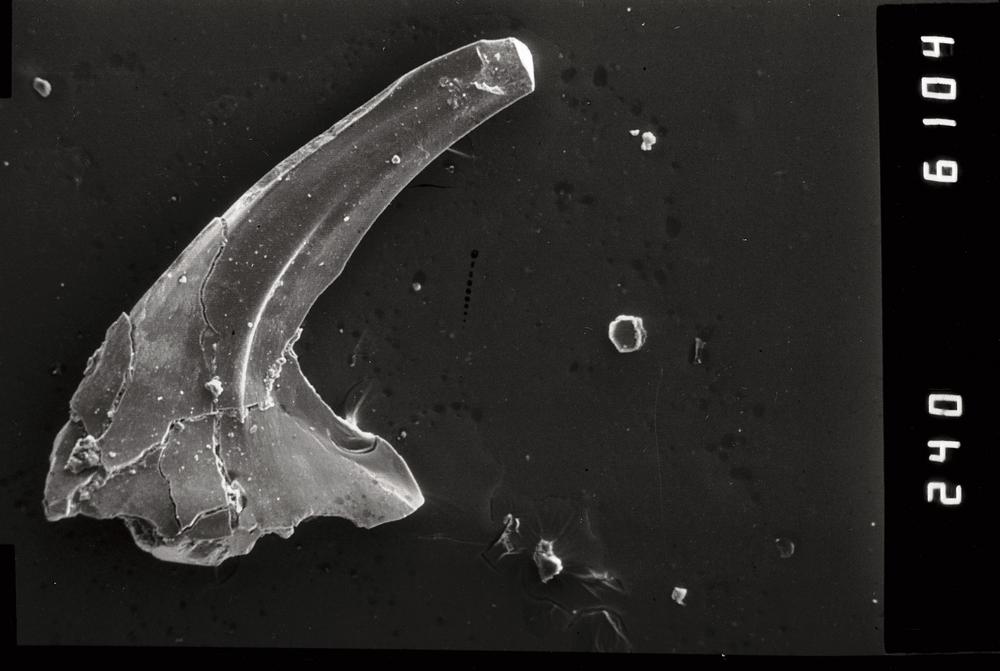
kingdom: Animalia
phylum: Chordata
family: Paracordylodontidae
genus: Oelandodus
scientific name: Oelandodus
